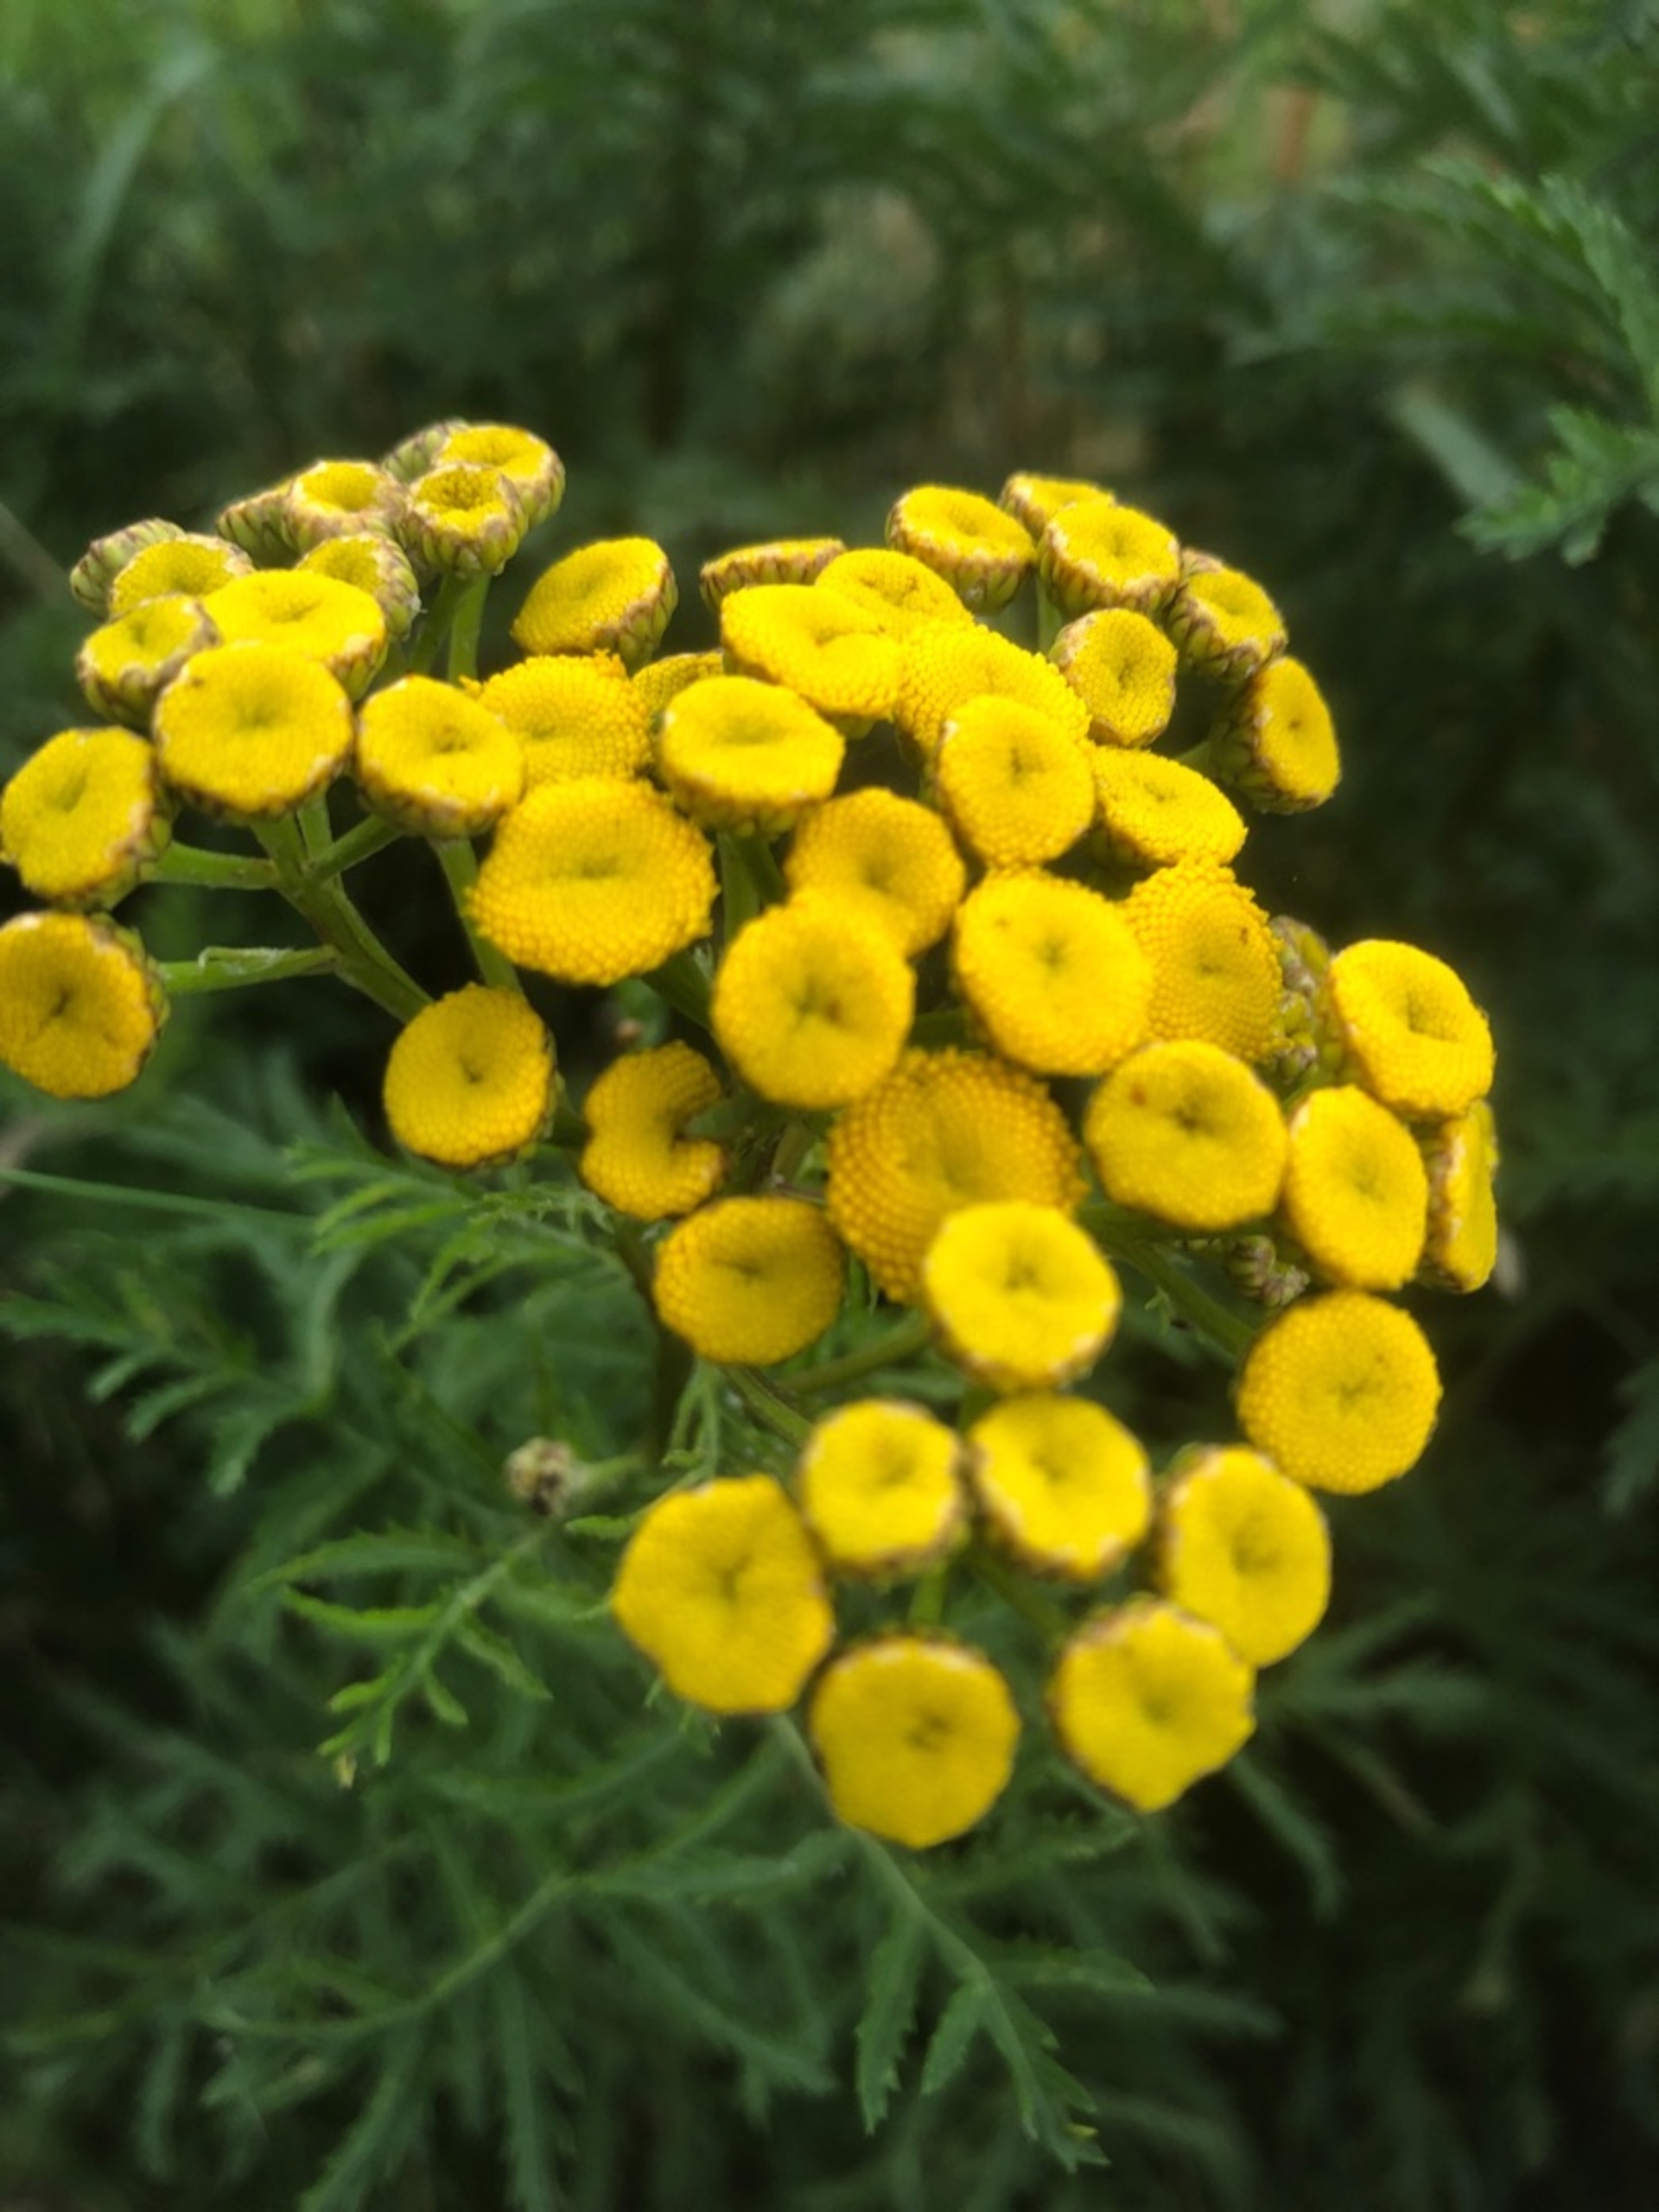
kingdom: Plantae
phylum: Tracheophyta
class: Magnoliopsida
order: Asterales
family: Asteraceae
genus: Tanacetum
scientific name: Tanacetum vulgare
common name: Rejnfan
